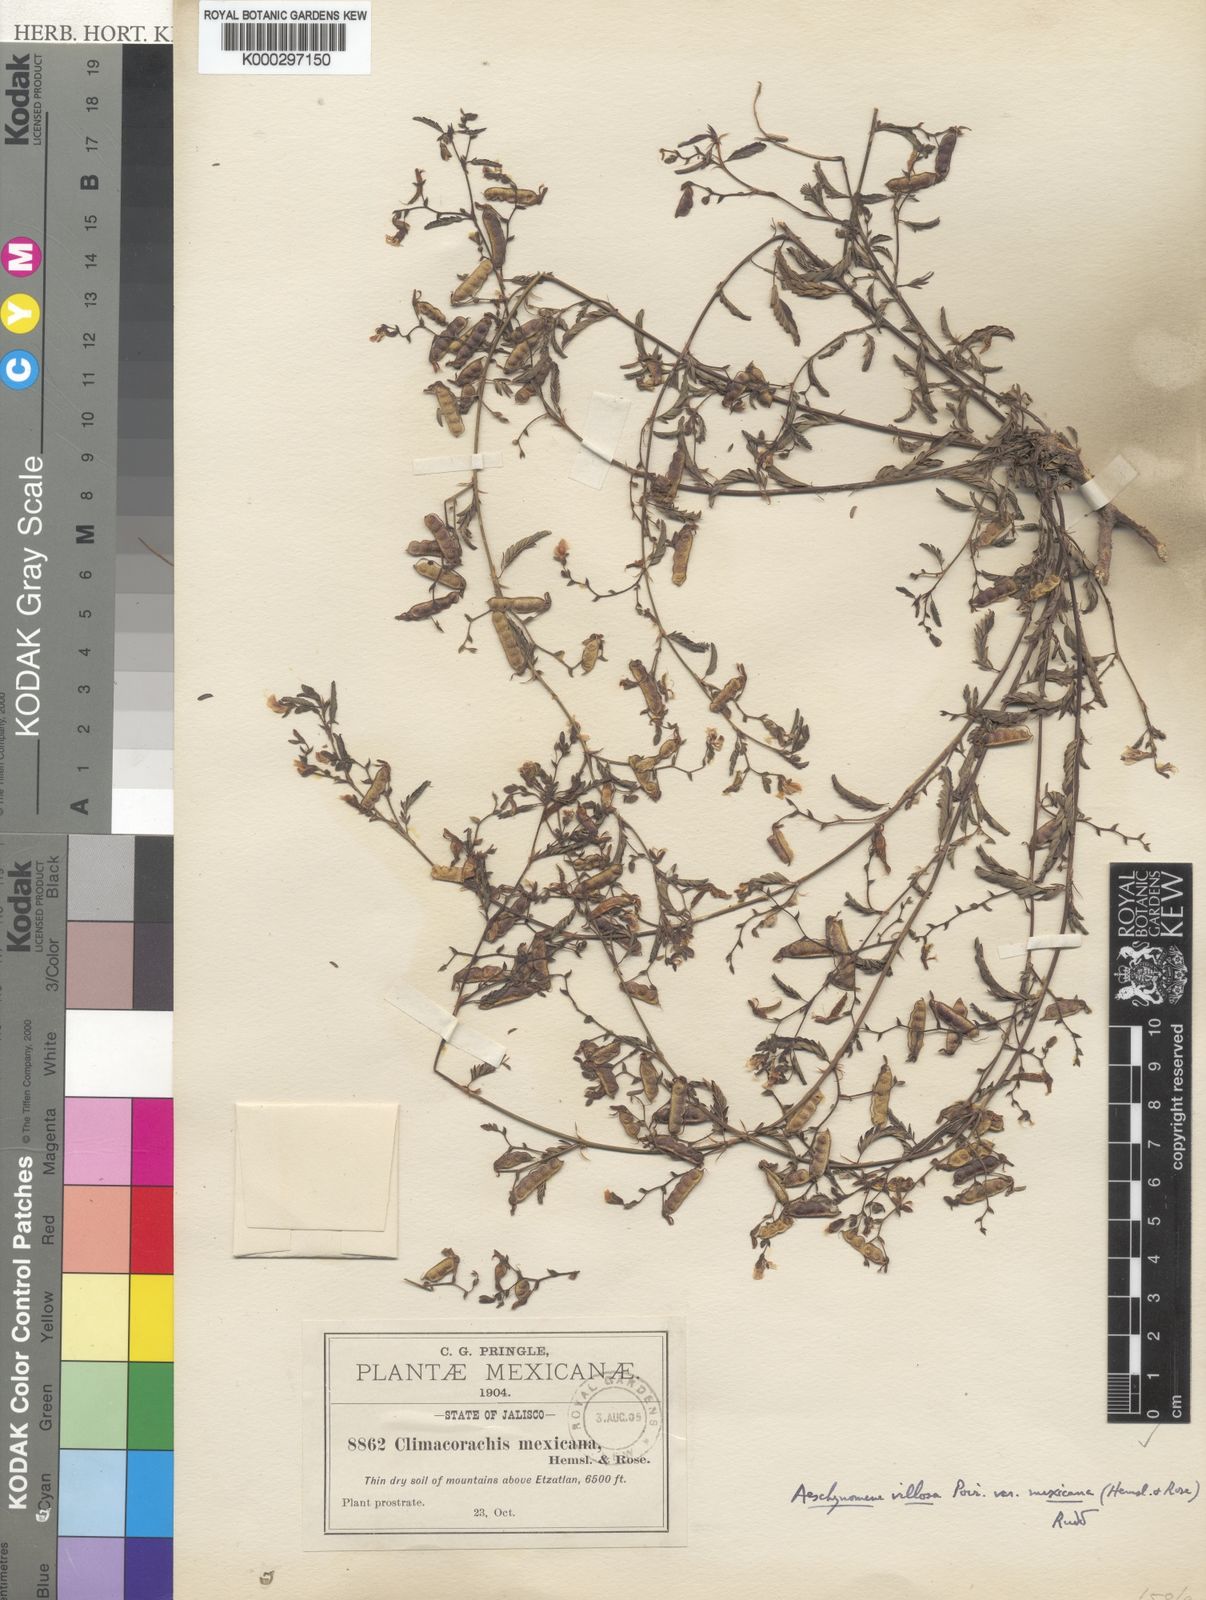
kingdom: Plantae
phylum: Tracheophyta
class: Magnoliopsida
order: Fabales
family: Fabaceae
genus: Aeschynomene
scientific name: Aeschynomene villosa
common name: Hairy-jointvetch
